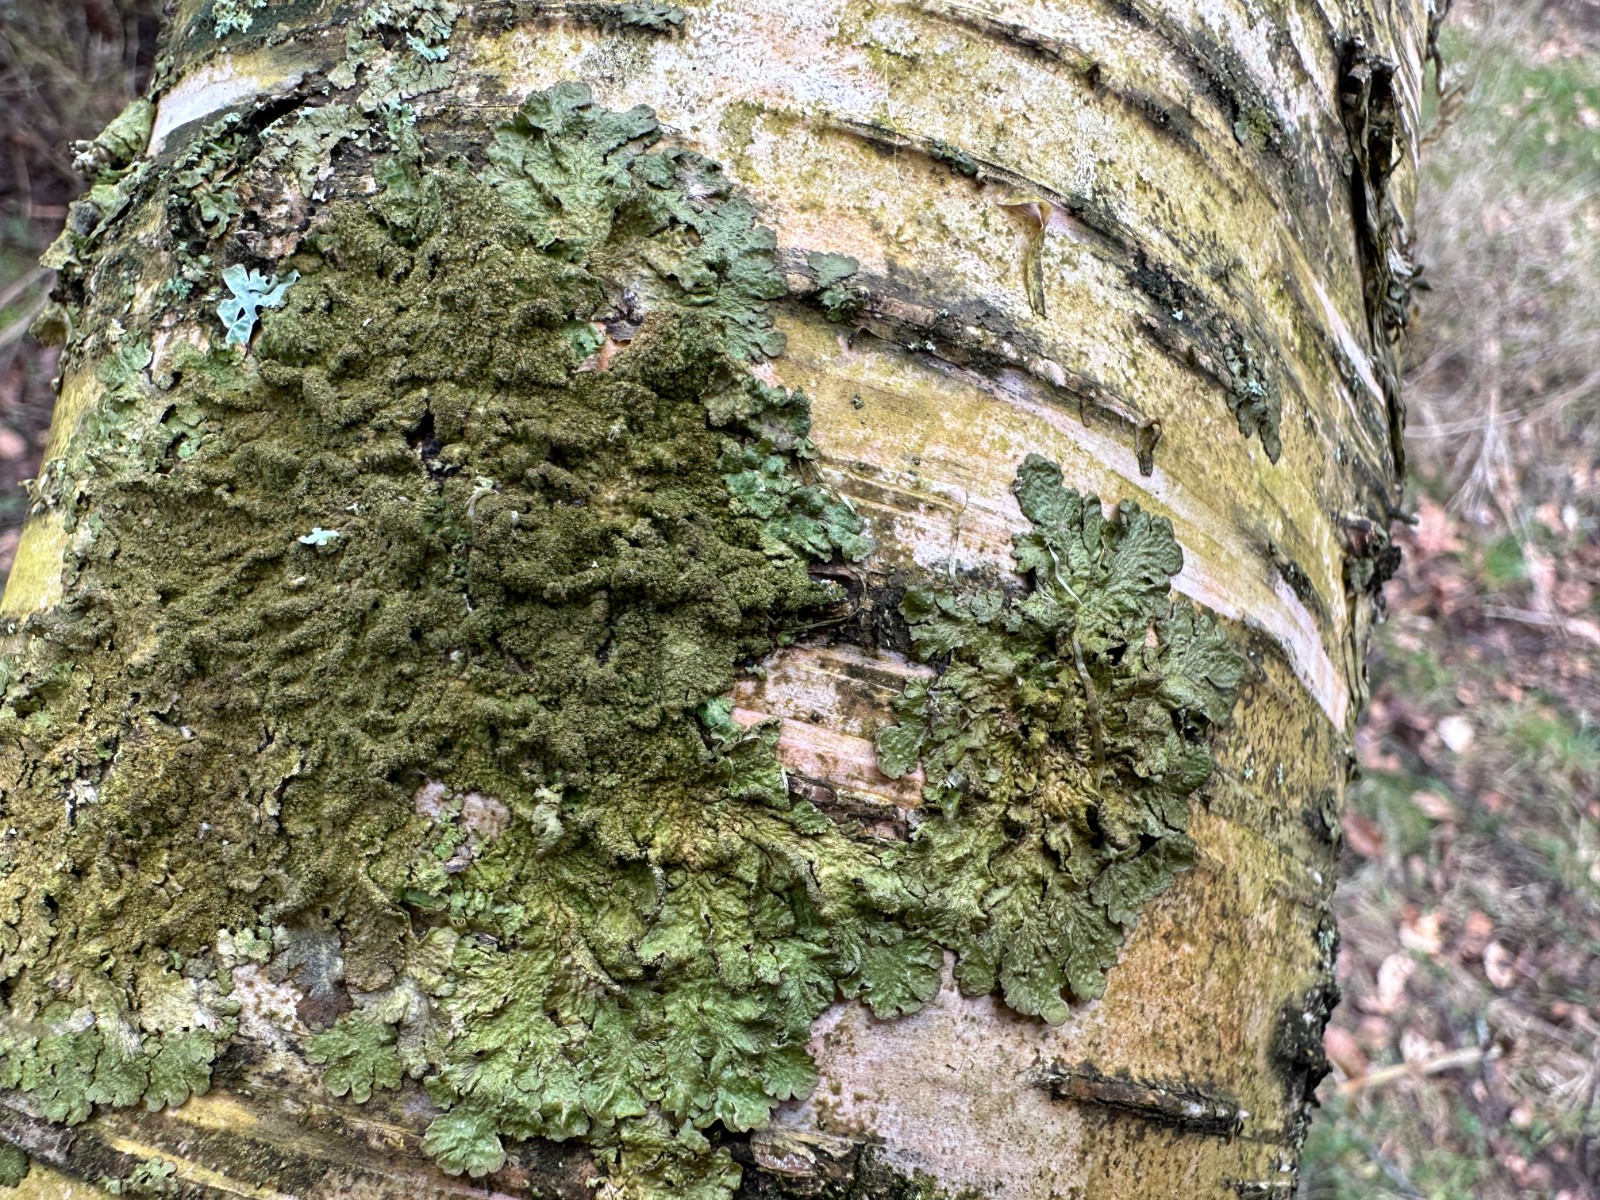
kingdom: Fungi
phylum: Ascomycota
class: Lecanoromycetes
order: Lecanorales
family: Parmeliaceae
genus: Melanelixia
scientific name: Melanelixia glabratula
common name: glinsende skållav
